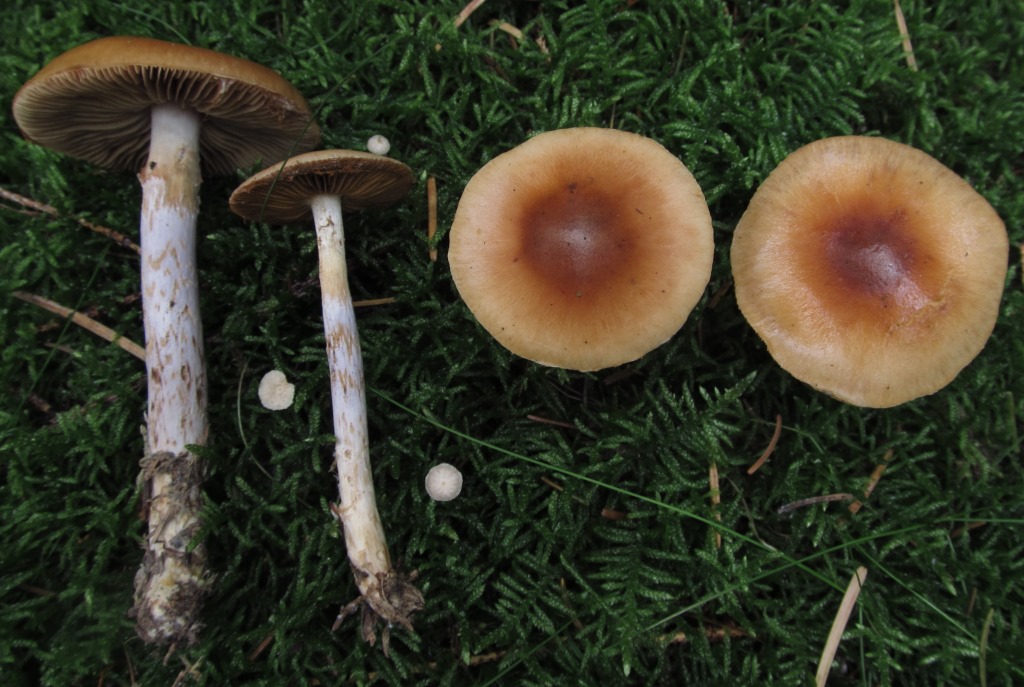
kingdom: Fungi
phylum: Basidiomycota
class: Agaricomycetes
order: Agaricales
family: Cortinariaceae
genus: Cortinarius
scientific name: Cortinarius collinitus
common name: spættet slørhat
